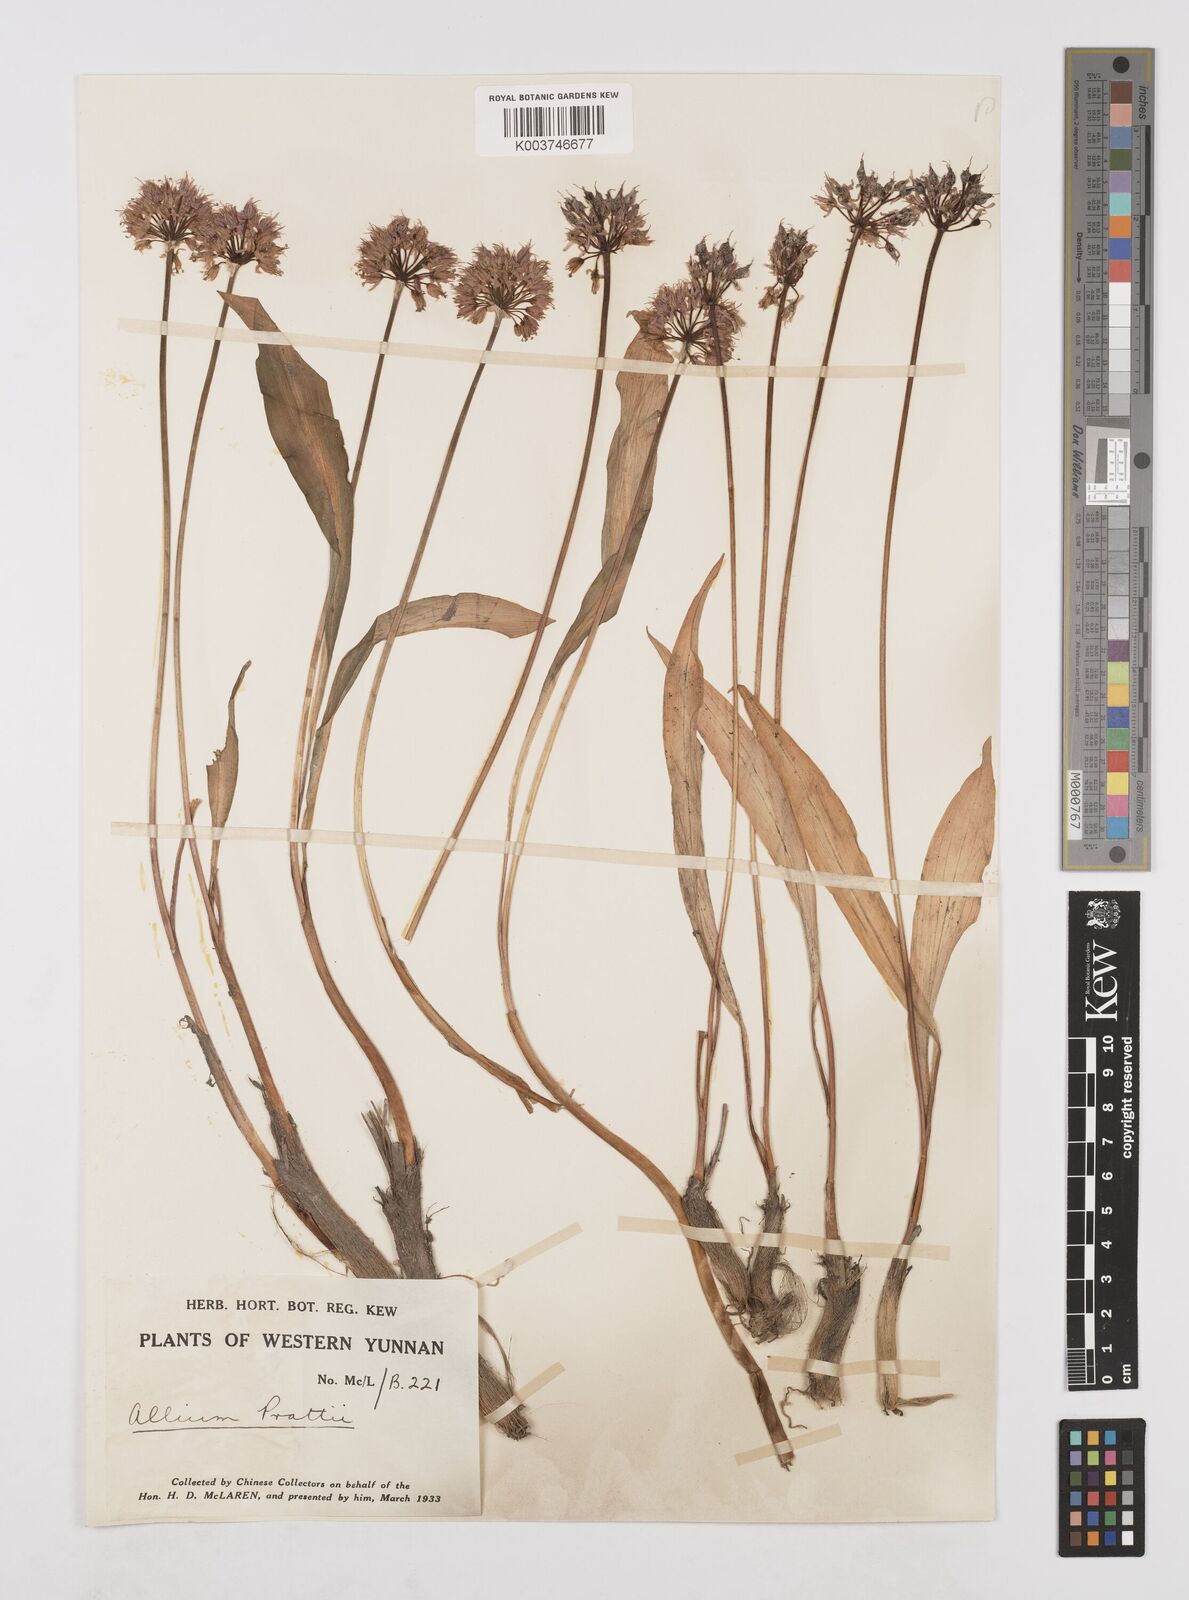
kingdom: Plantae
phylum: Tracheophyta
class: Liliopsida
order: Asparagales
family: Amaryllidaceae
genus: Allium
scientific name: Allium prattii
